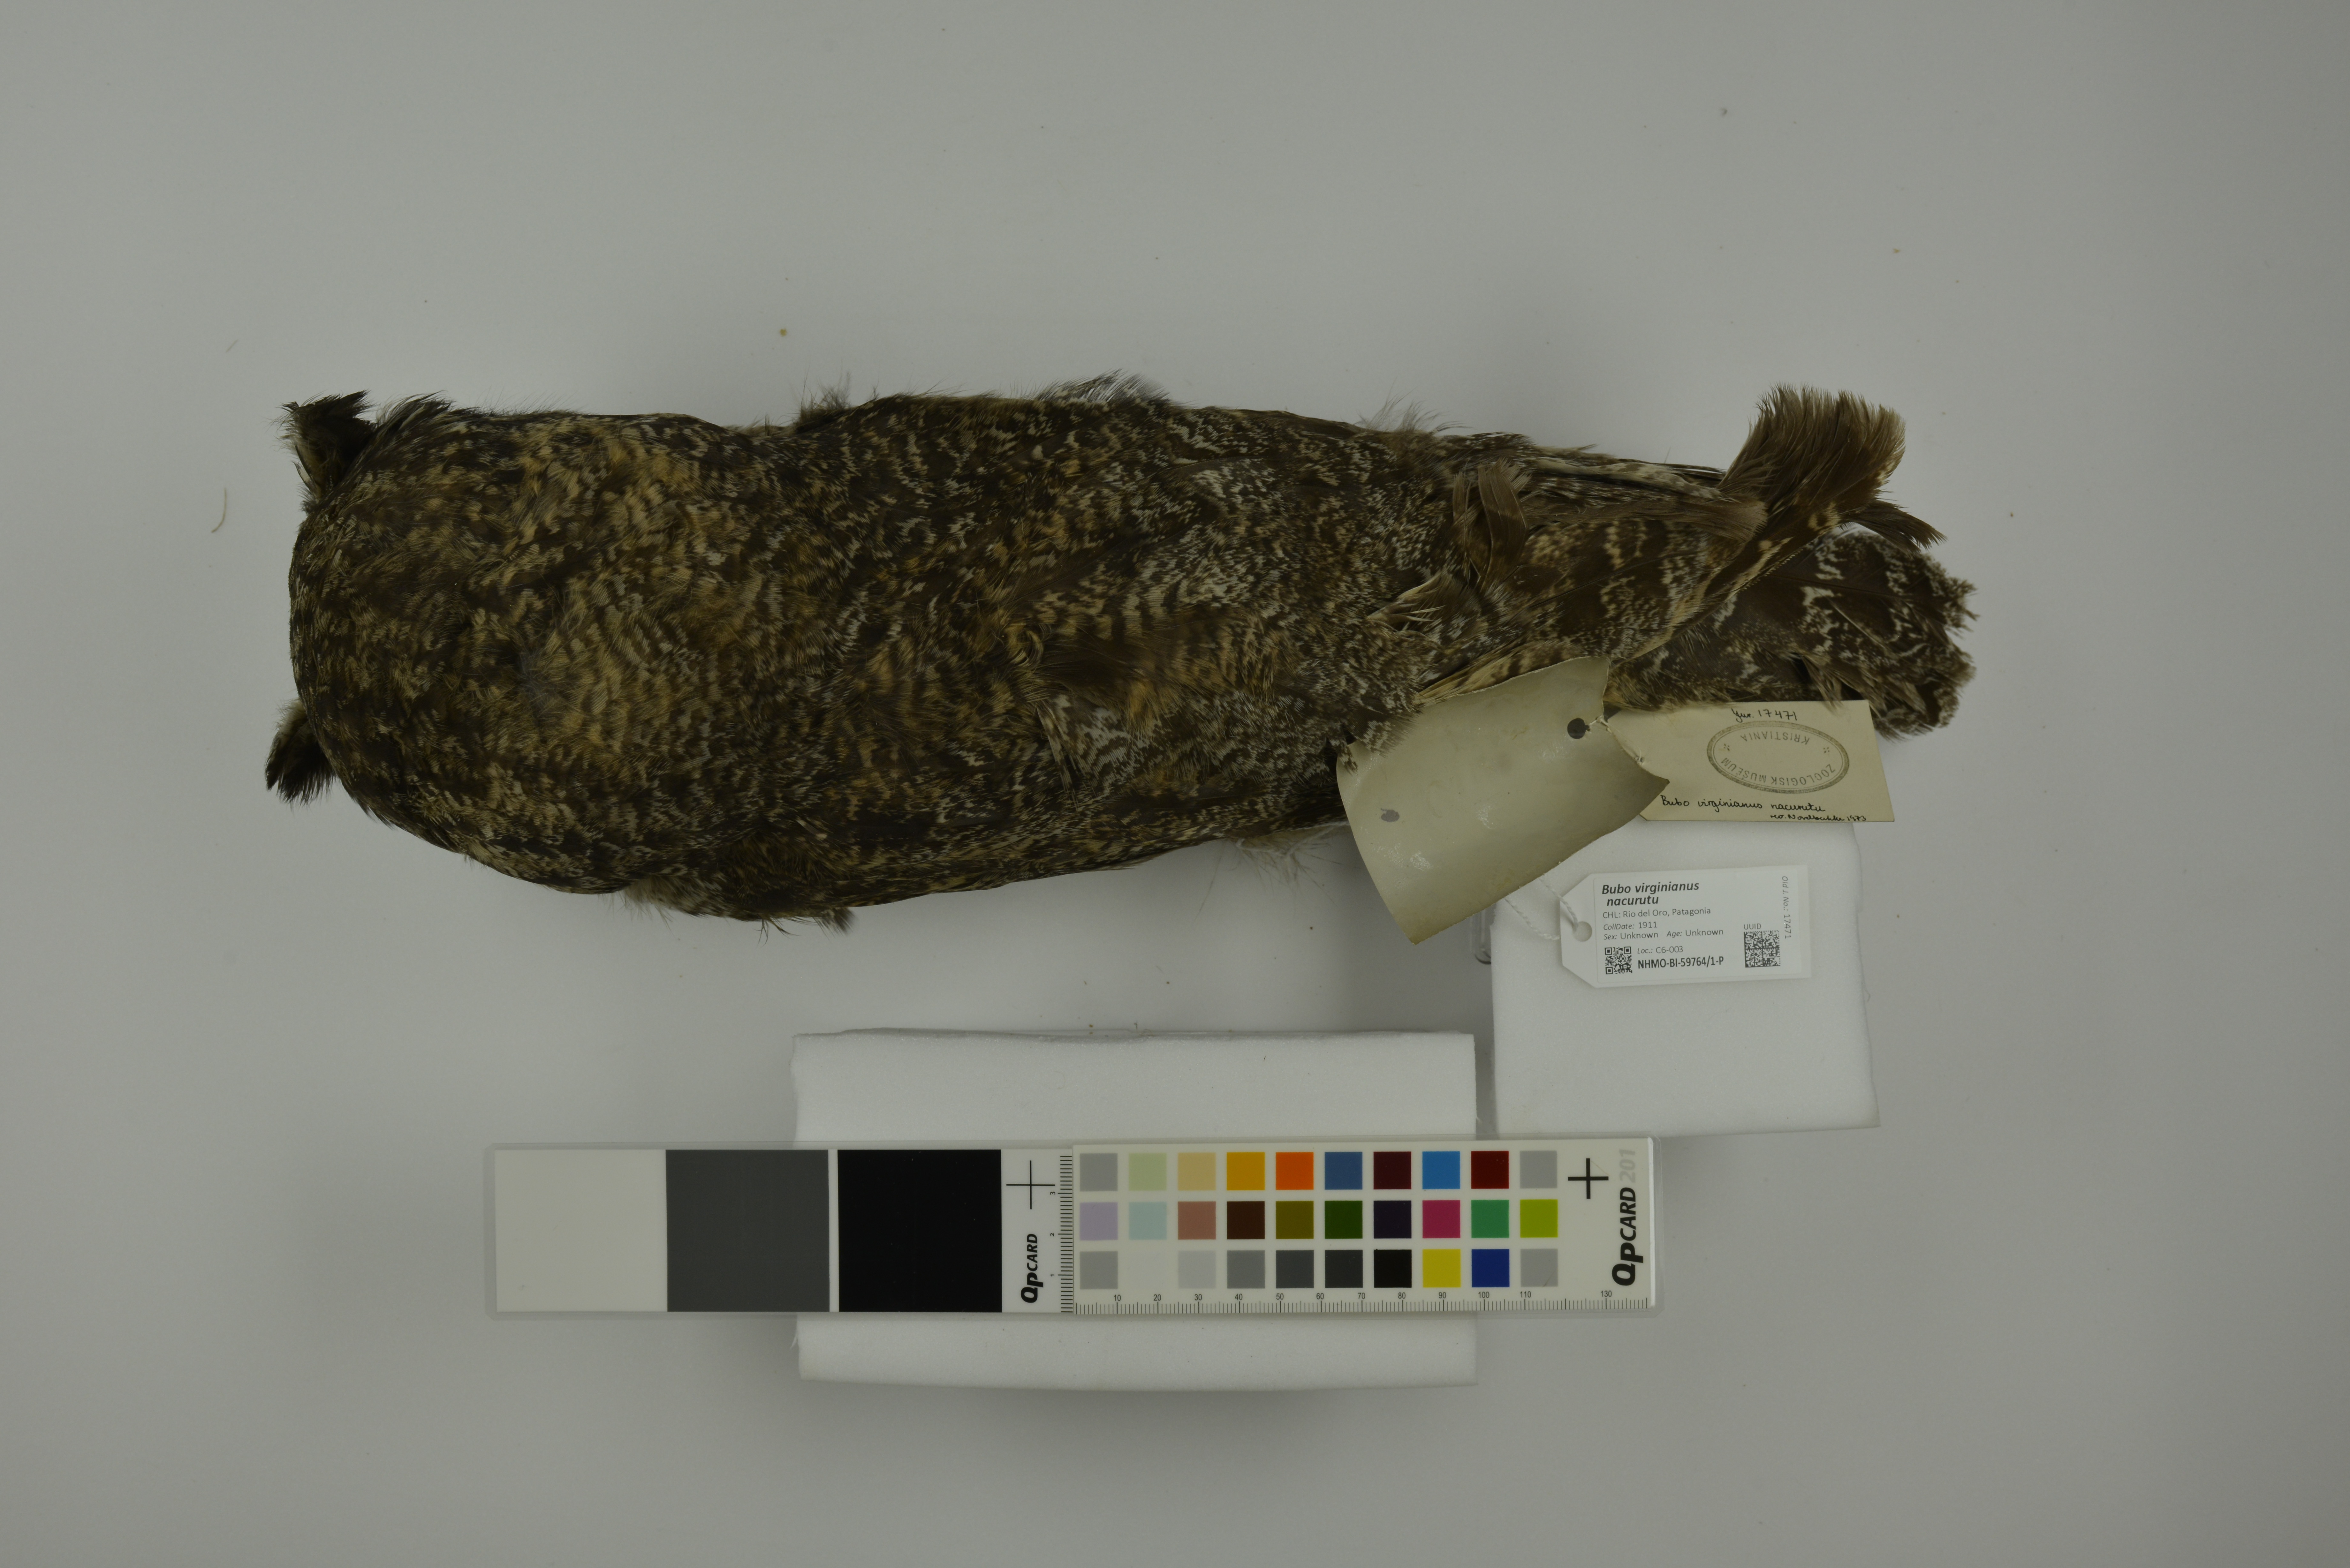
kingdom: Animalia
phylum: Chordata
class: Aves
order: Strigiformes
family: Strigidae
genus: Bubo
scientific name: Bubo virginianus
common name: Great horned owl
